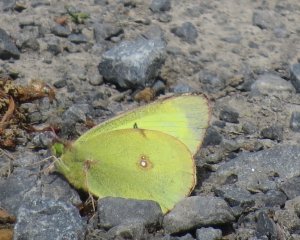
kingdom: Animalia
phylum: Arthropoda
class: Insecta
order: Lepidoptera
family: Pieridae
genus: Colias
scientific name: Colias philodice
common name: Clouded Sulphur
